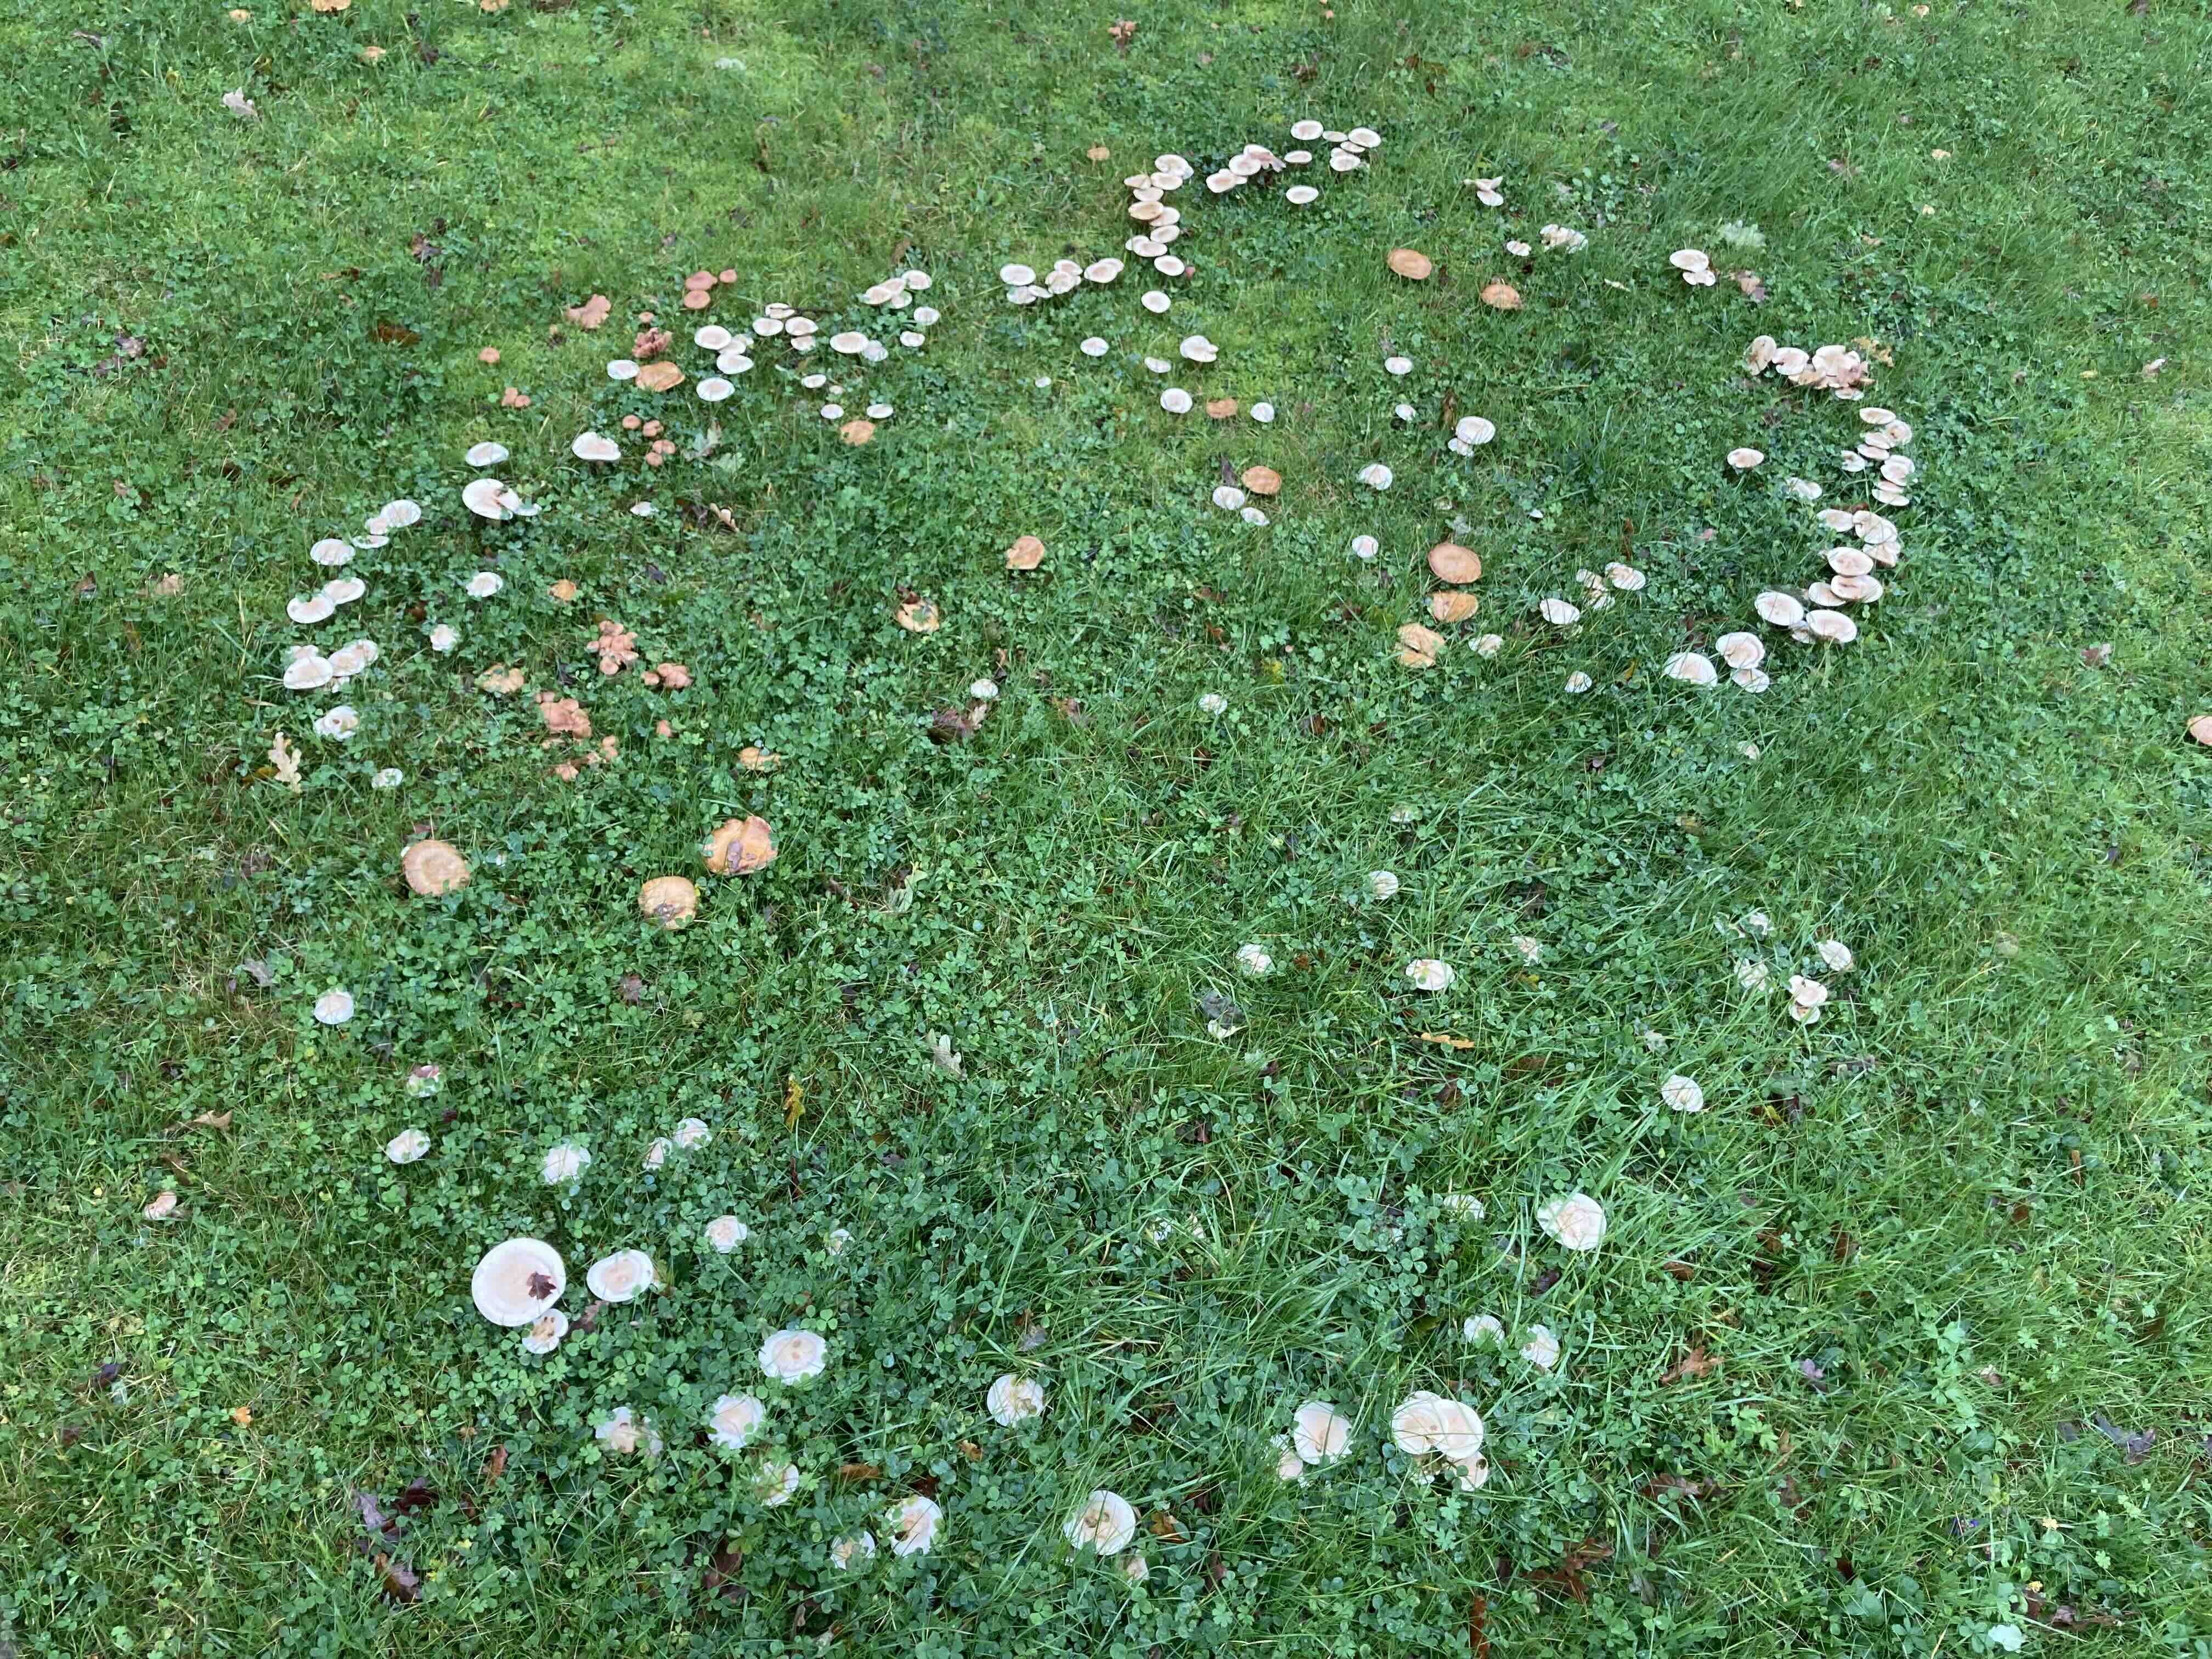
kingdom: Fungi
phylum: Basidiomycota
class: Agaricomycetes
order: Agaricales
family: Hymenogastraceae
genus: Hebeloma
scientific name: Hebeloma
